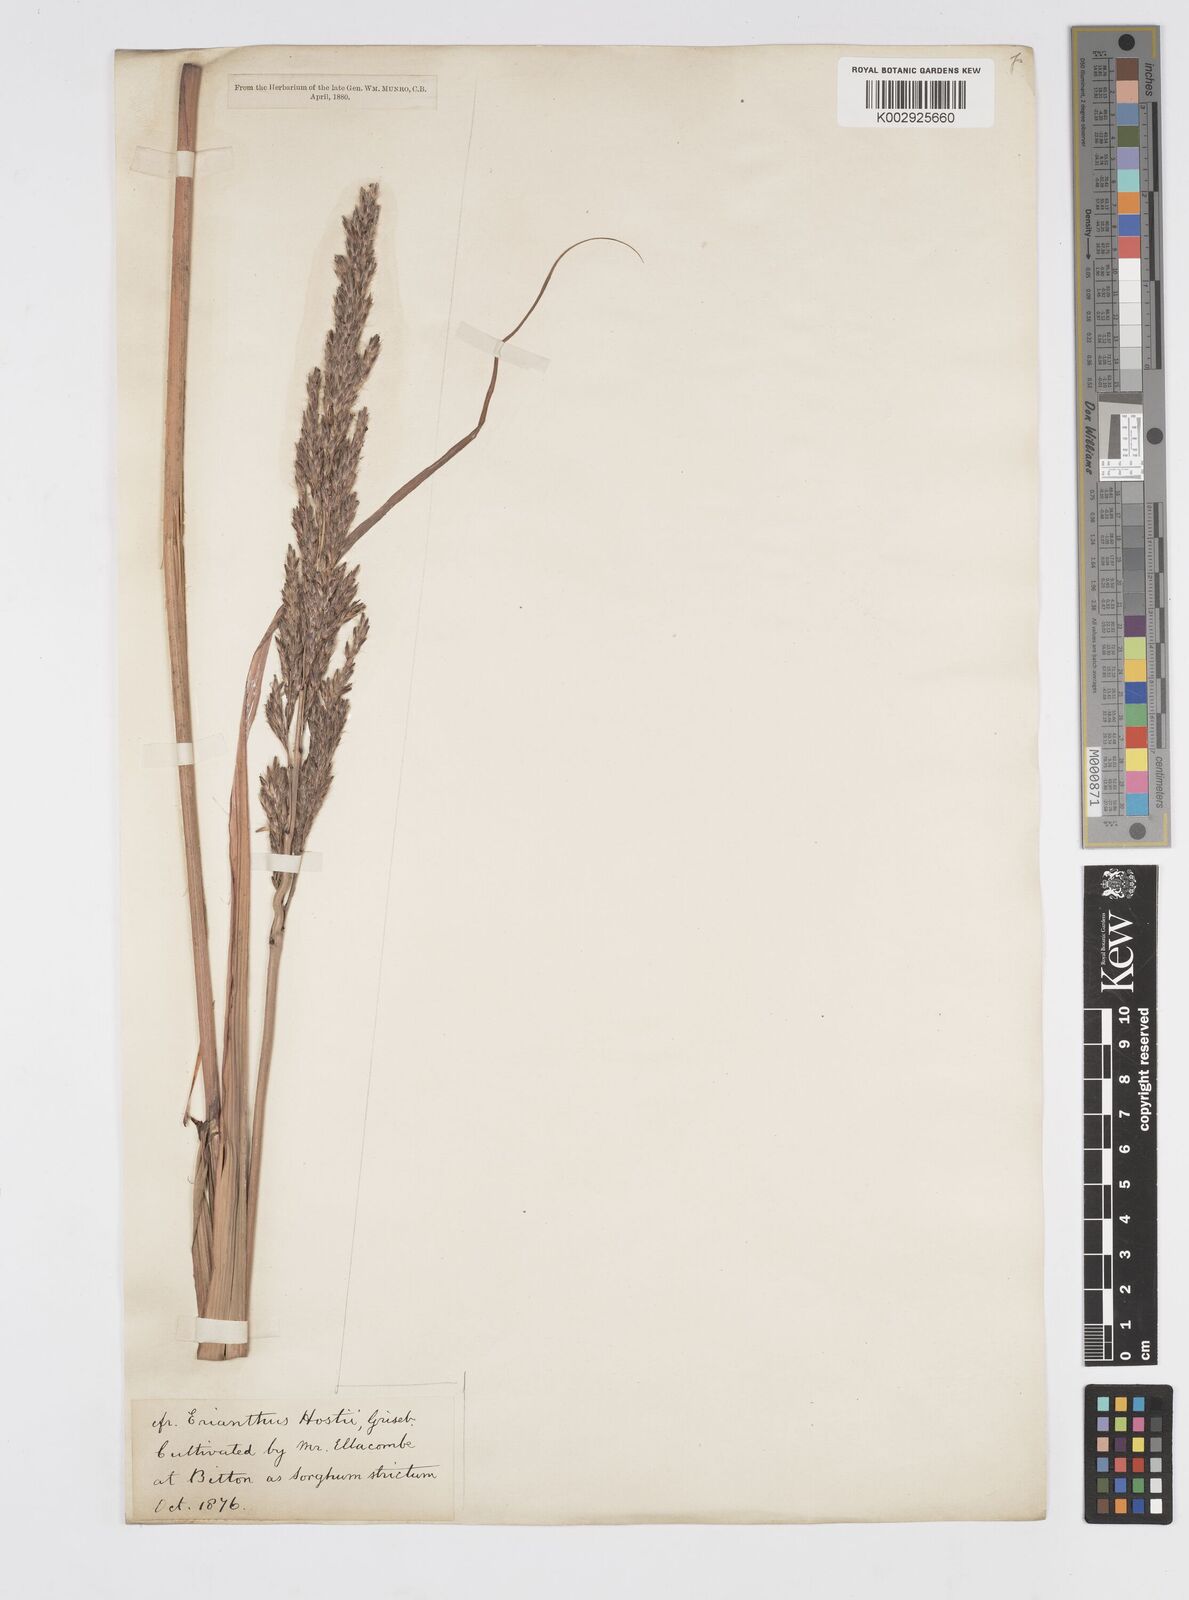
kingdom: Plantae
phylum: Tracheophyta
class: Liliopsida
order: Poales
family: Poaceae
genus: Tripidium
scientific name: Tripidium strictum
